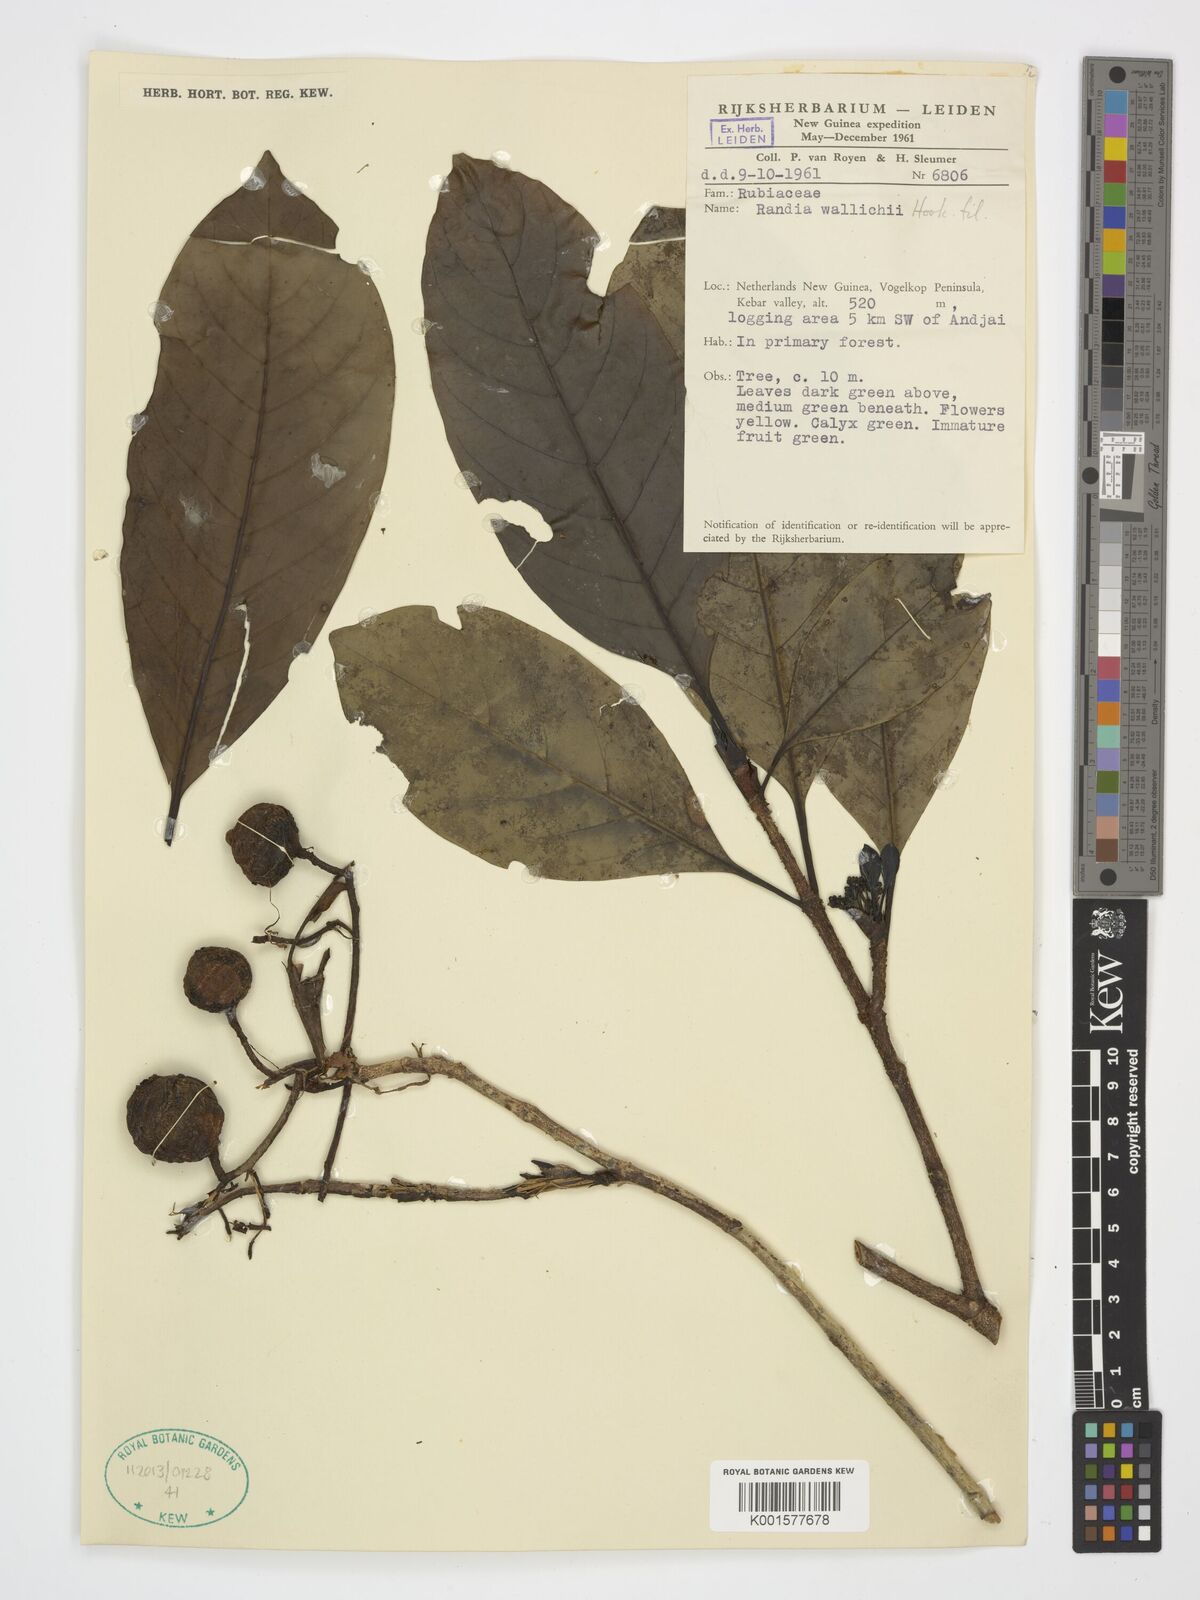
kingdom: Plantae
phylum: Tracheophyta
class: Magnoliopsida
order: Gentianales
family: Rubiaceae
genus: Tarennoidea
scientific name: Tarennoidea wallichii
